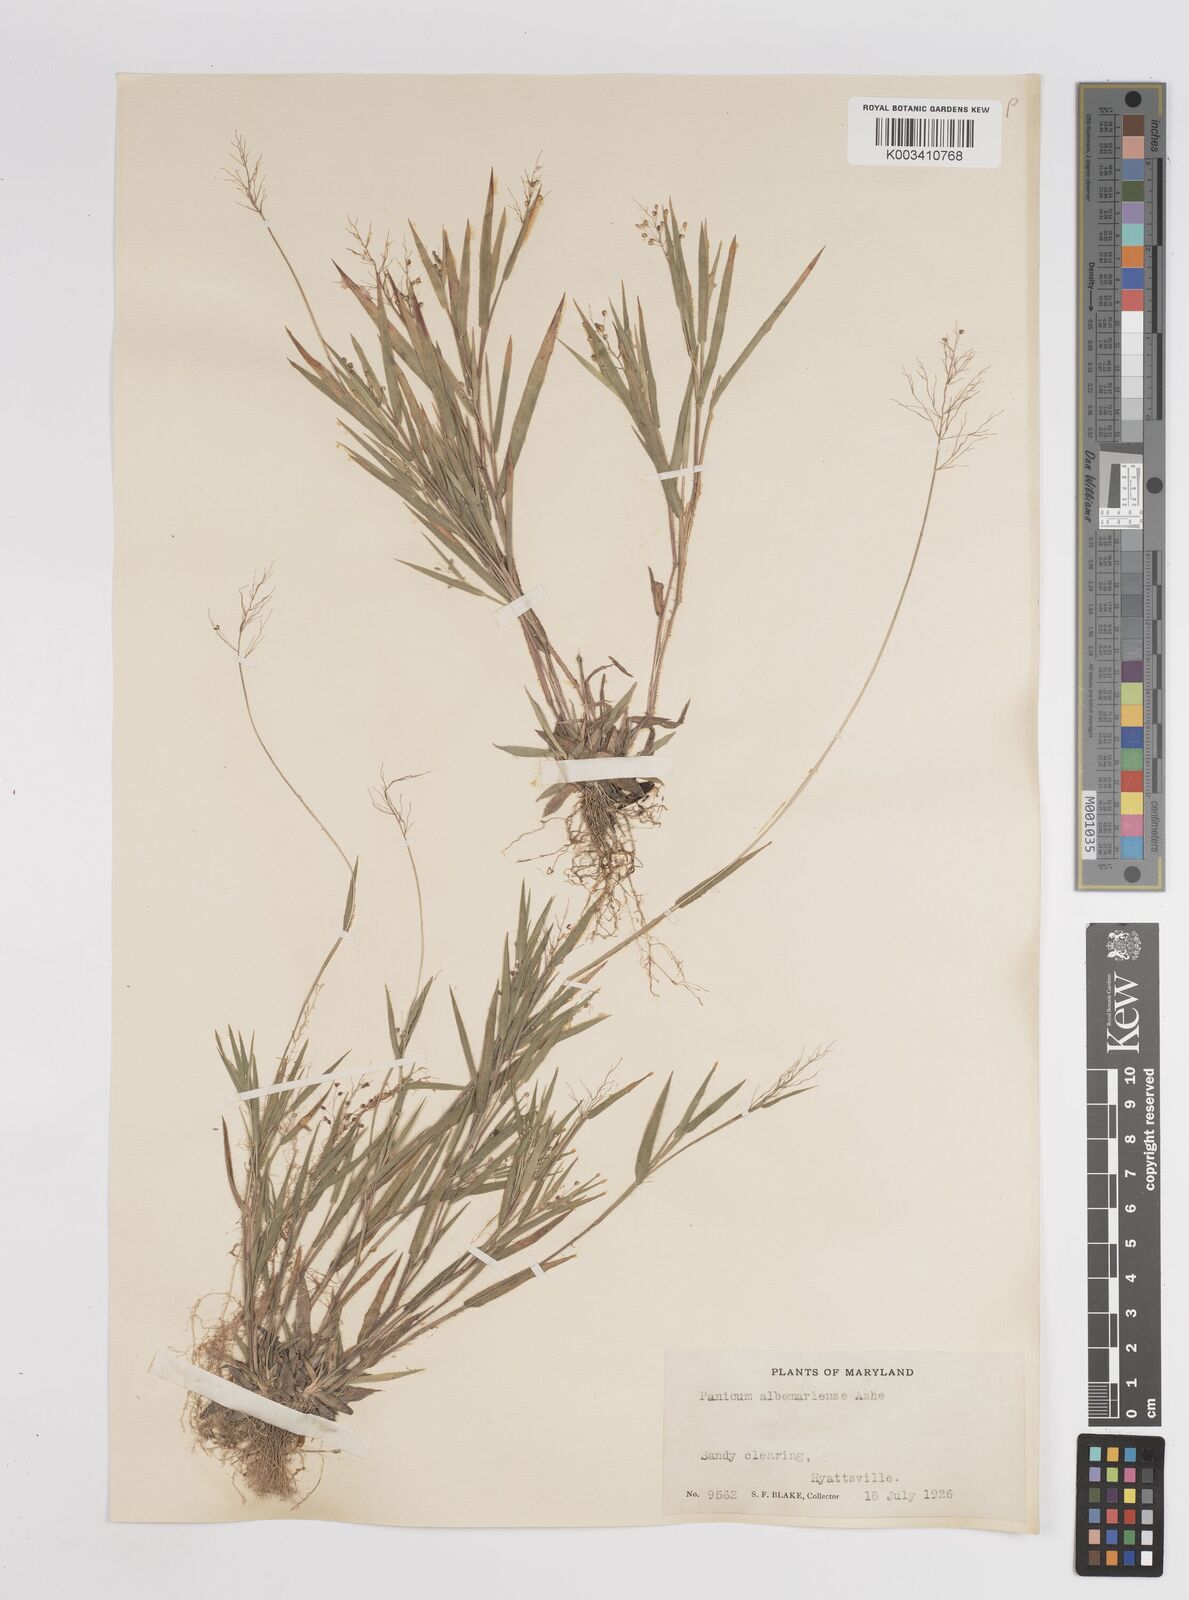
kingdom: Plantae
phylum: Tracheophyta
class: Liliopsida
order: Poales
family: Poaceae
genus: Dichanthelium
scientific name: Dichanthelium meridionale
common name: Mat panicgrass
